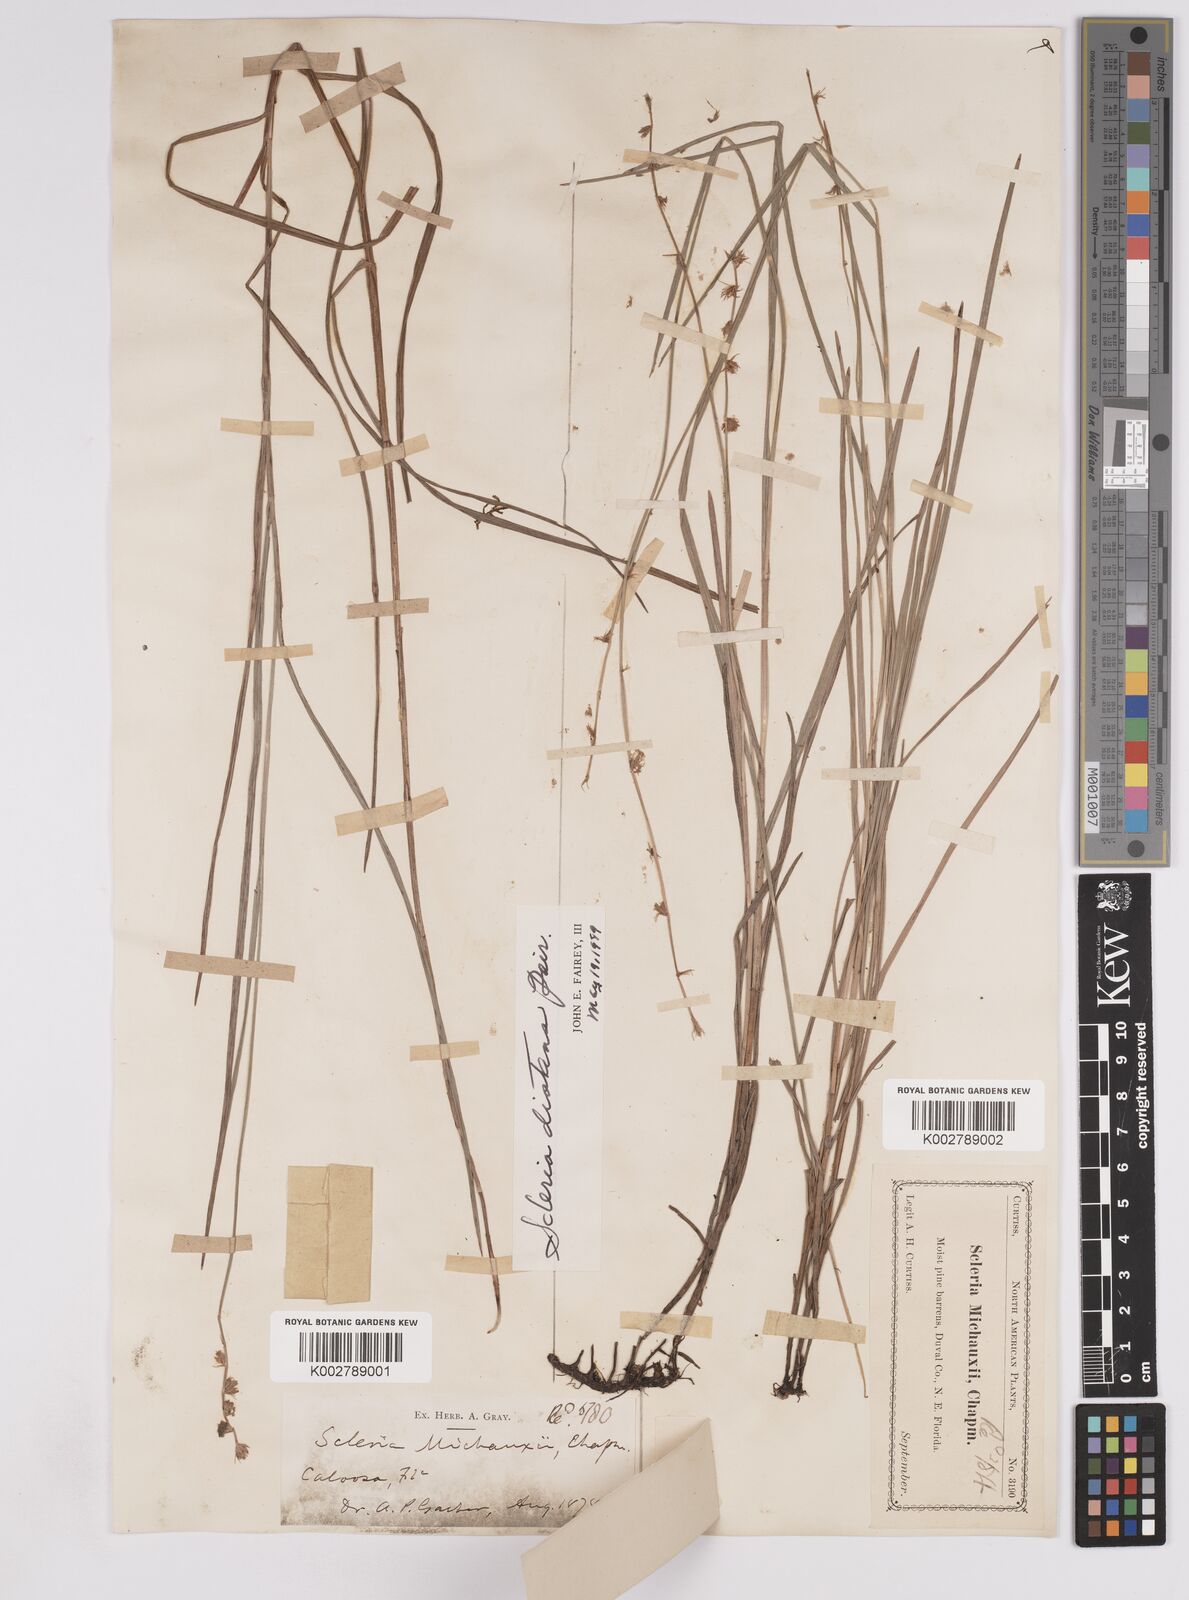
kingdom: Plantae
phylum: Tracheophyta
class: Liliopsida
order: Poales
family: Cyperaceae
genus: Scleria
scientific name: Scleria distans
